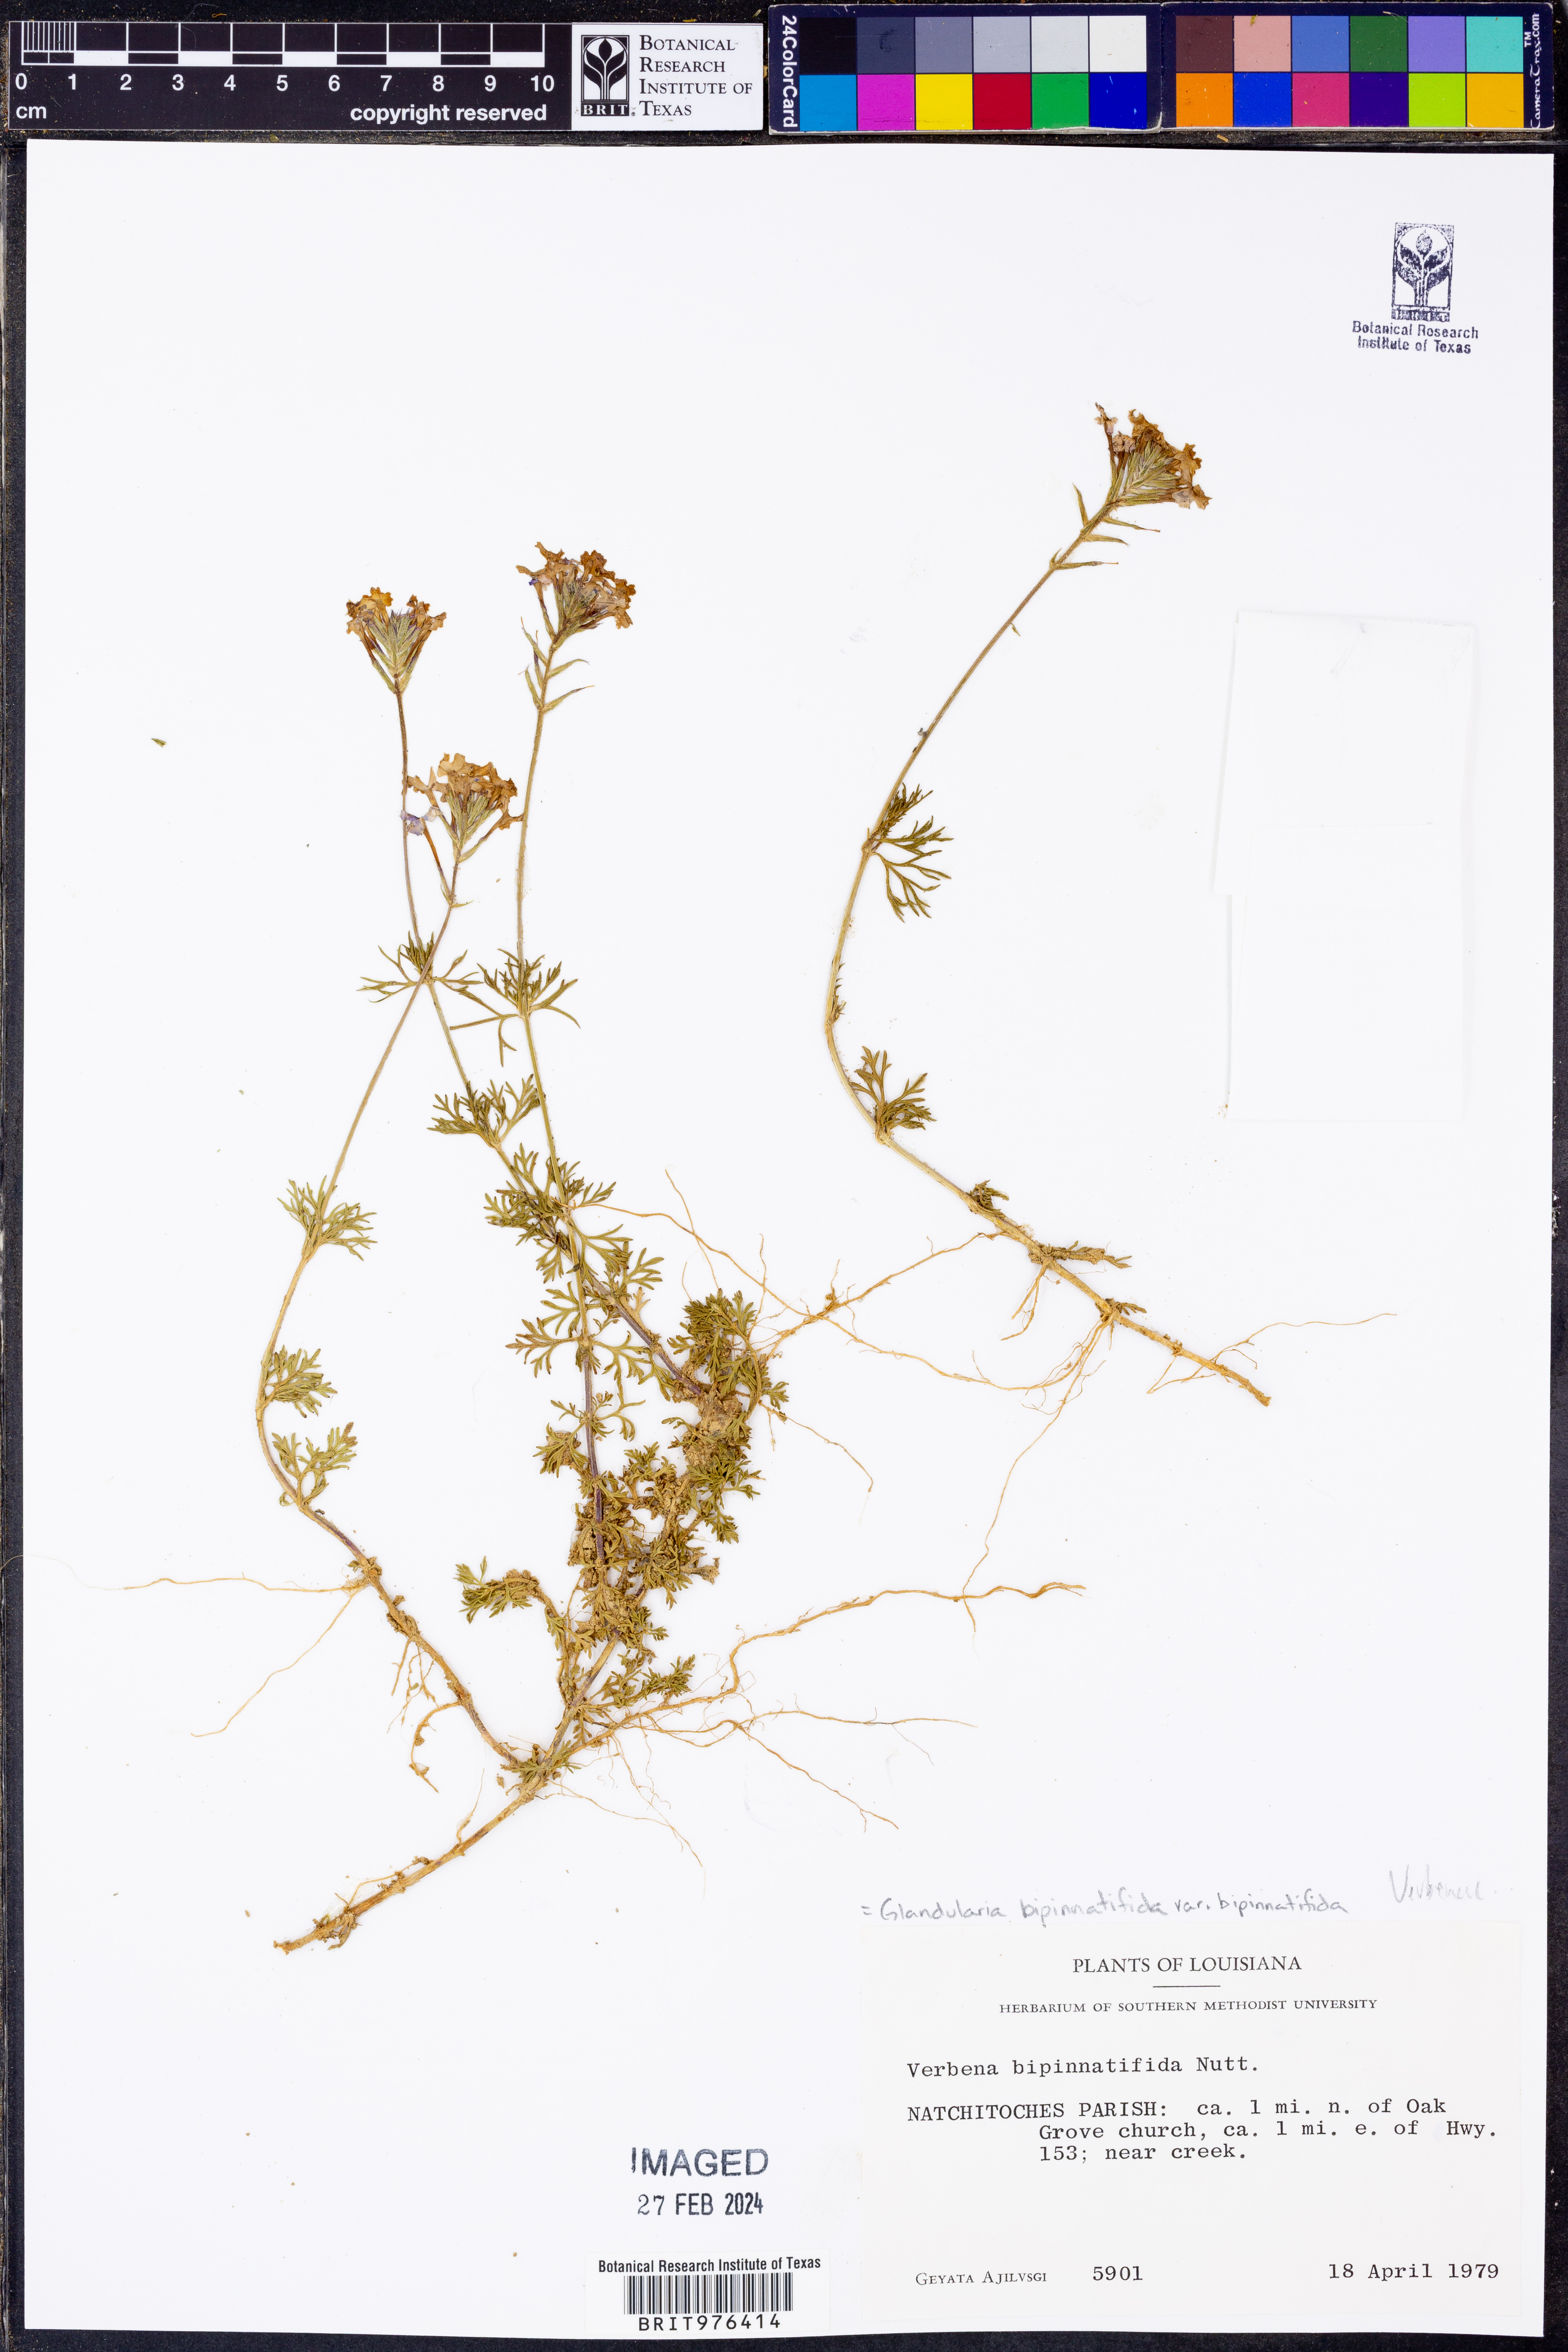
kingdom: Plantae
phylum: Tracheophyta
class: Magnoliopsida
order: Lamiales
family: Verbenaceae
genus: Verbena
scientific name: Verbena bipinnatifida
